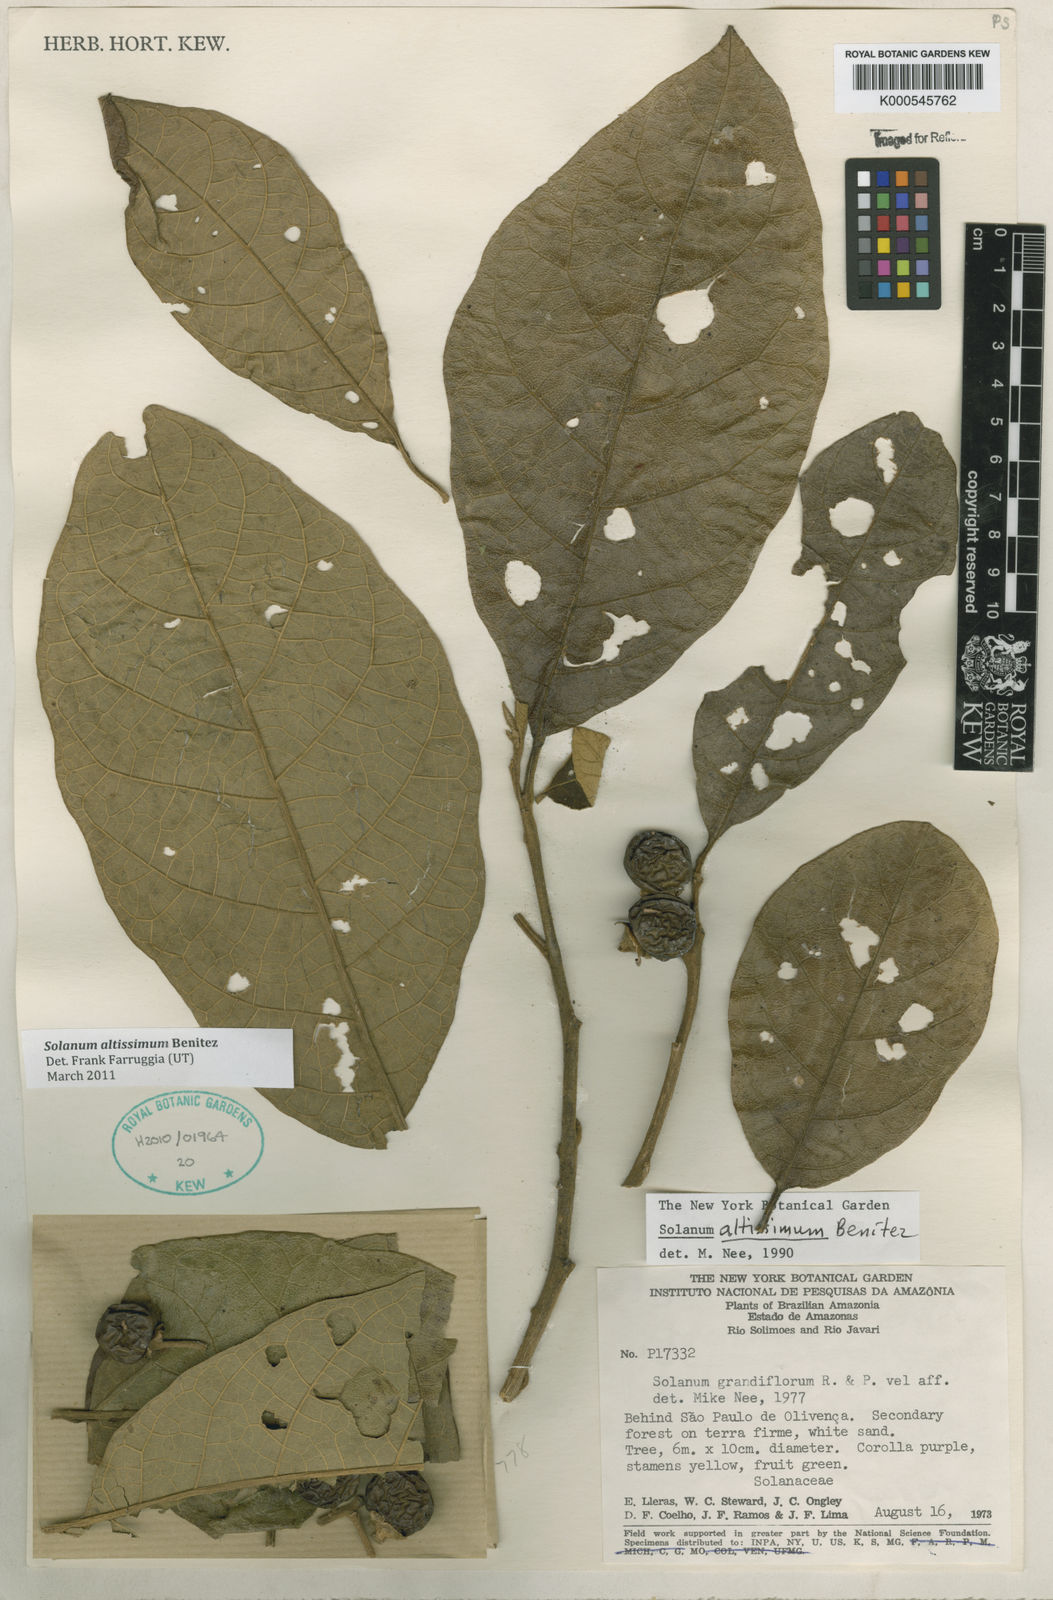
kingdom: Plantae
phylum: Tracheophyta
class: Magnoliopsida
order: Solanales
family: Solanaceae
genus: Solanum
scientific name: Solanum
